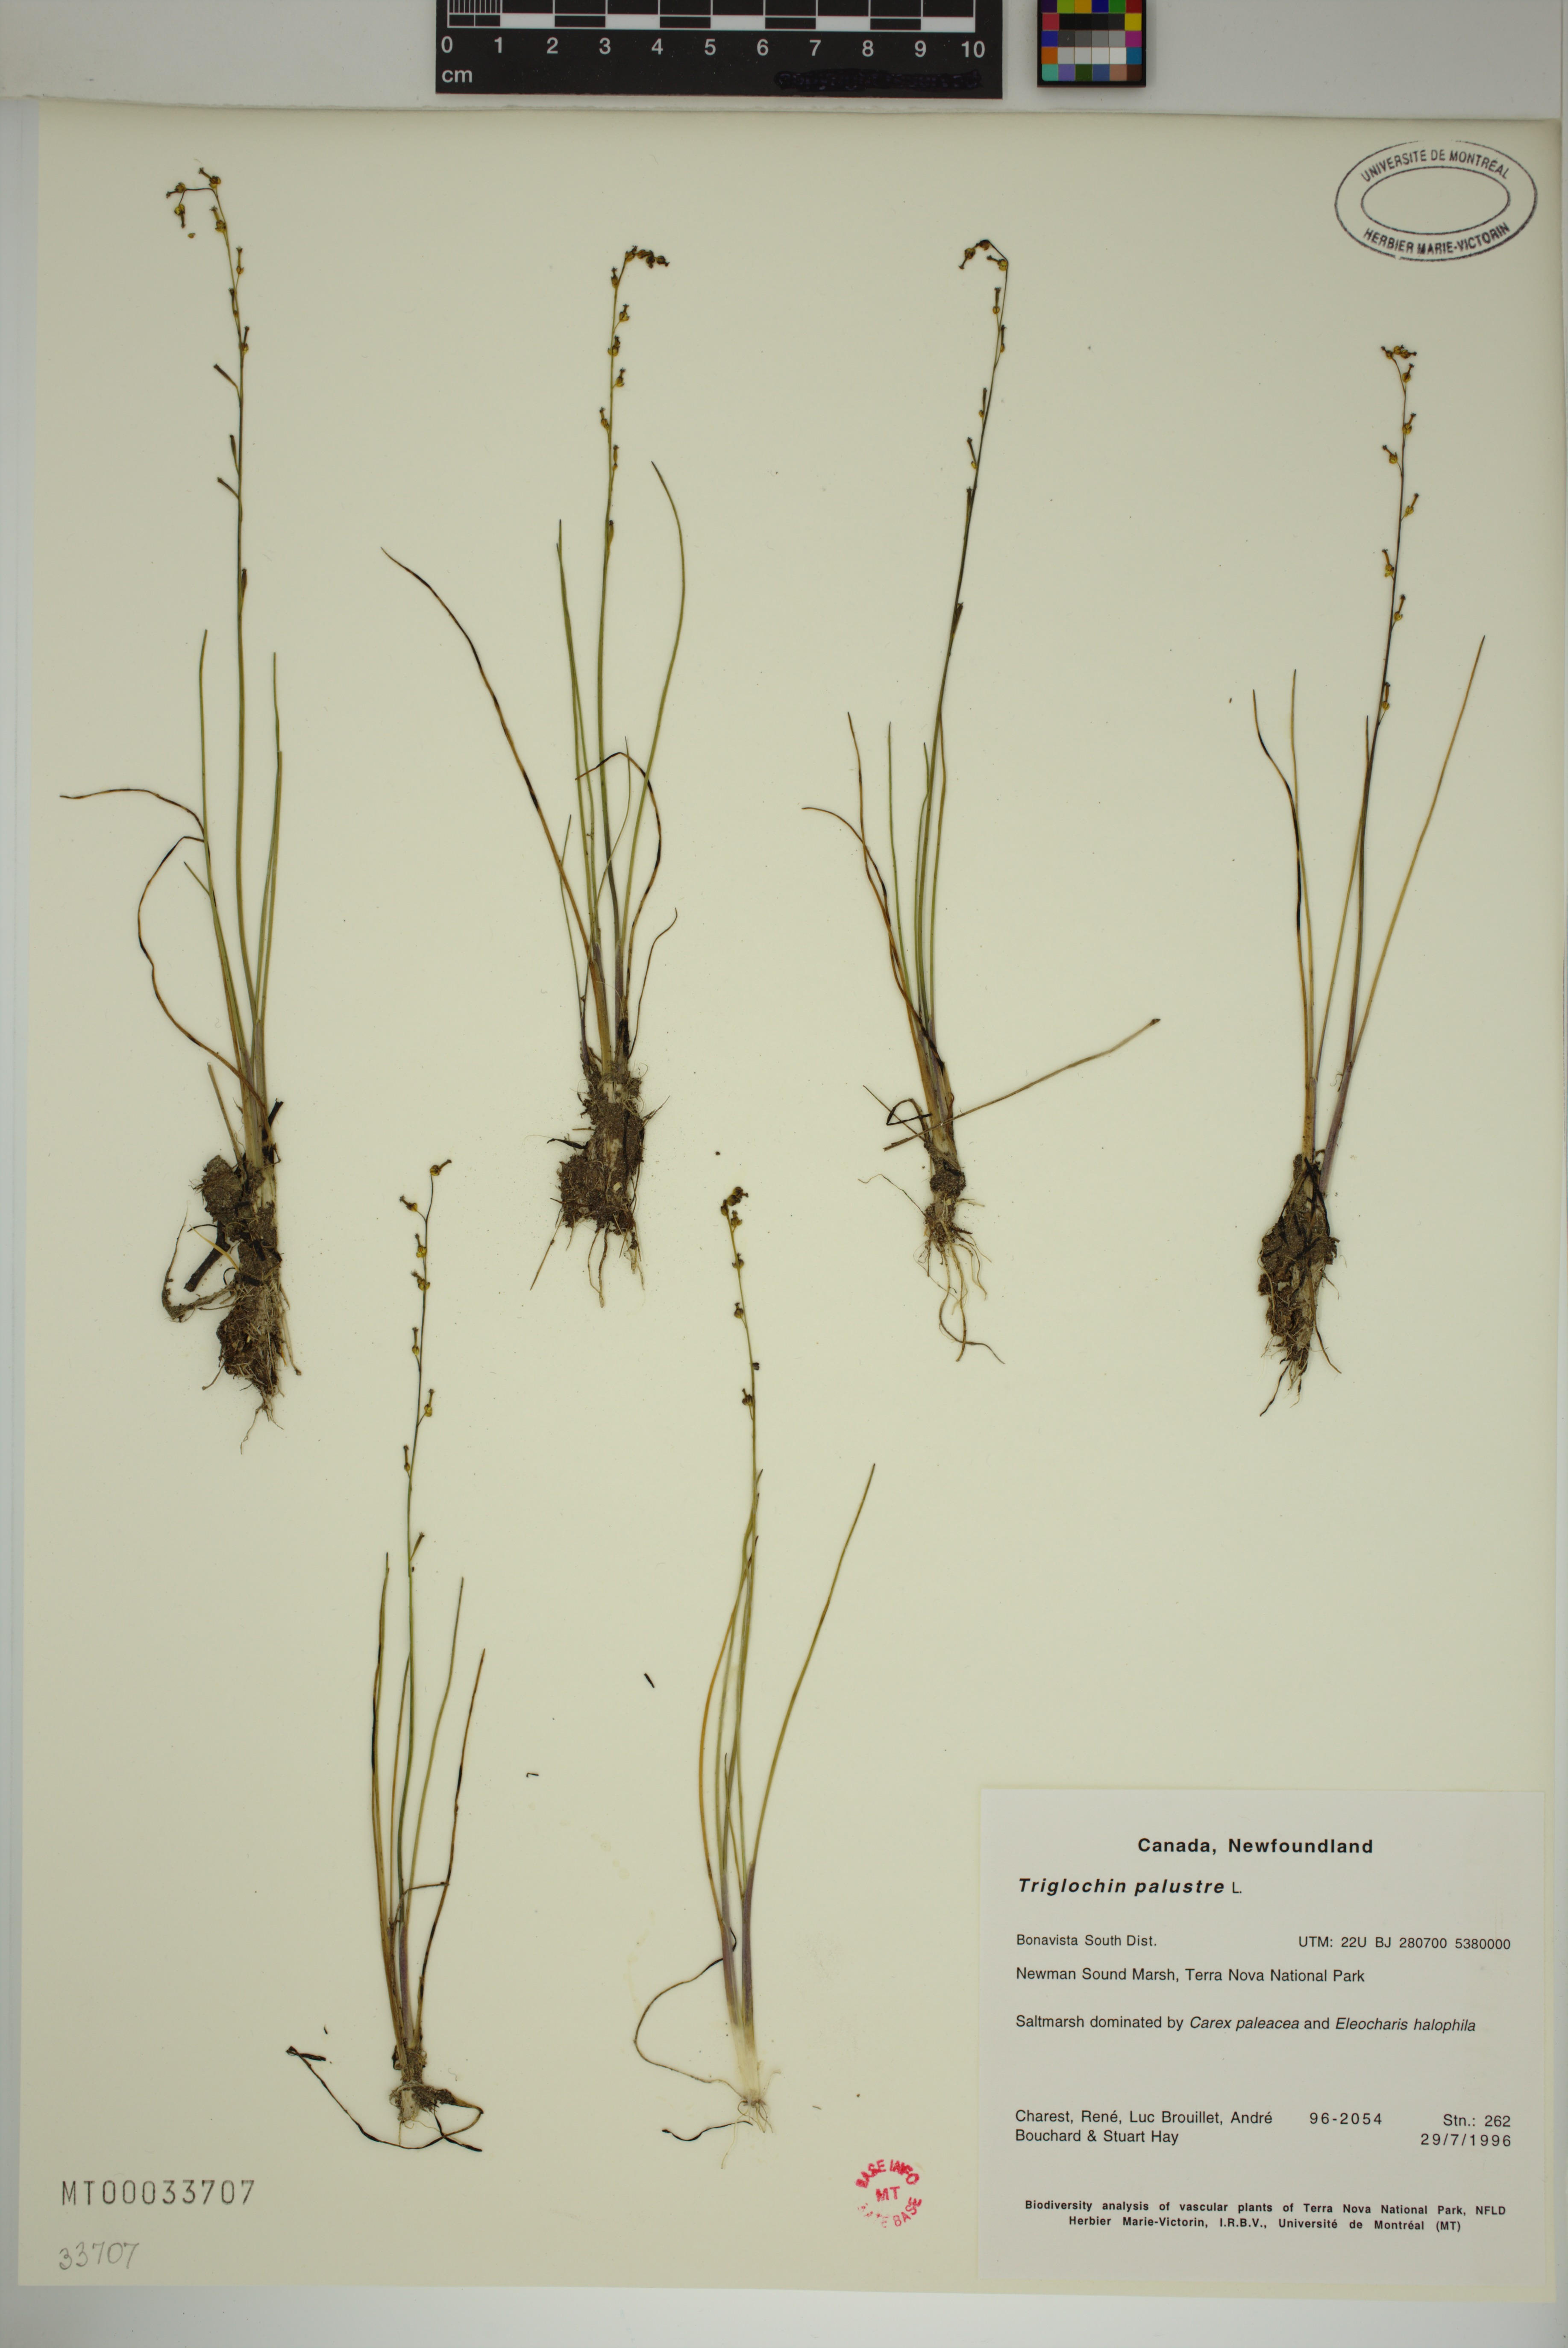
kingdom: Plantae
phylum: Tracheophyta
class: Liliopsida
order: Alismatales
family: Juncaginaceae
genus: Triglochin
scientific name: Triglochin palustris
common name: Marsh arrowgrass
